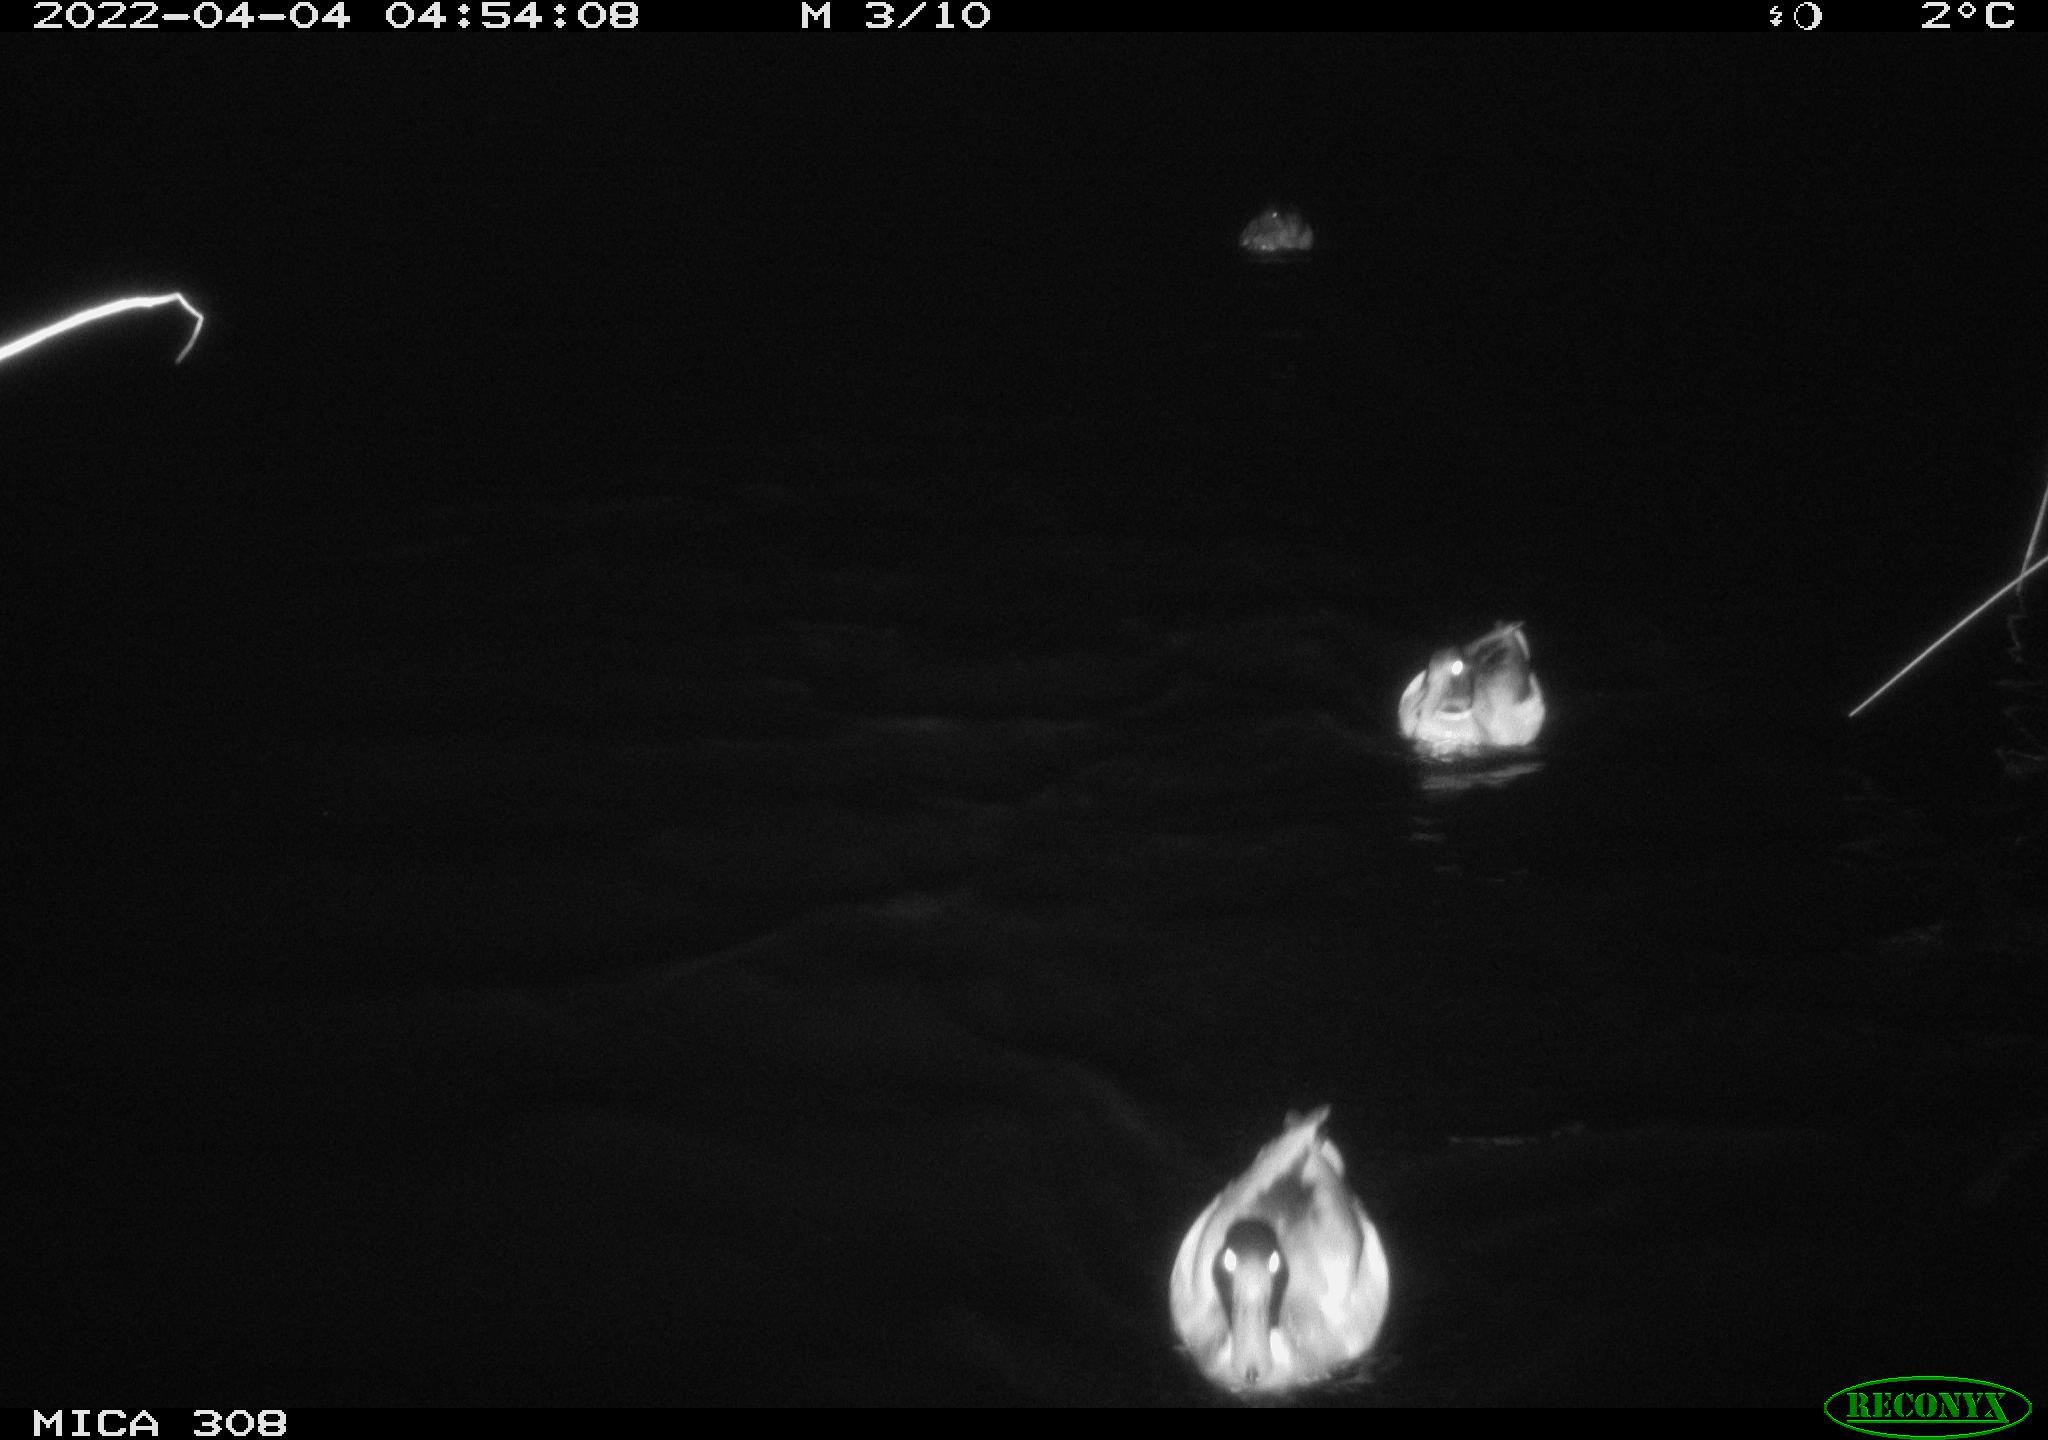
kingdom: Animalia
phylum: Chordata
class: Aves
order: Anseriformes
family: Anatidae
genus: Anas
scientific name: Anas platyrhynchos
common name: Mallard
